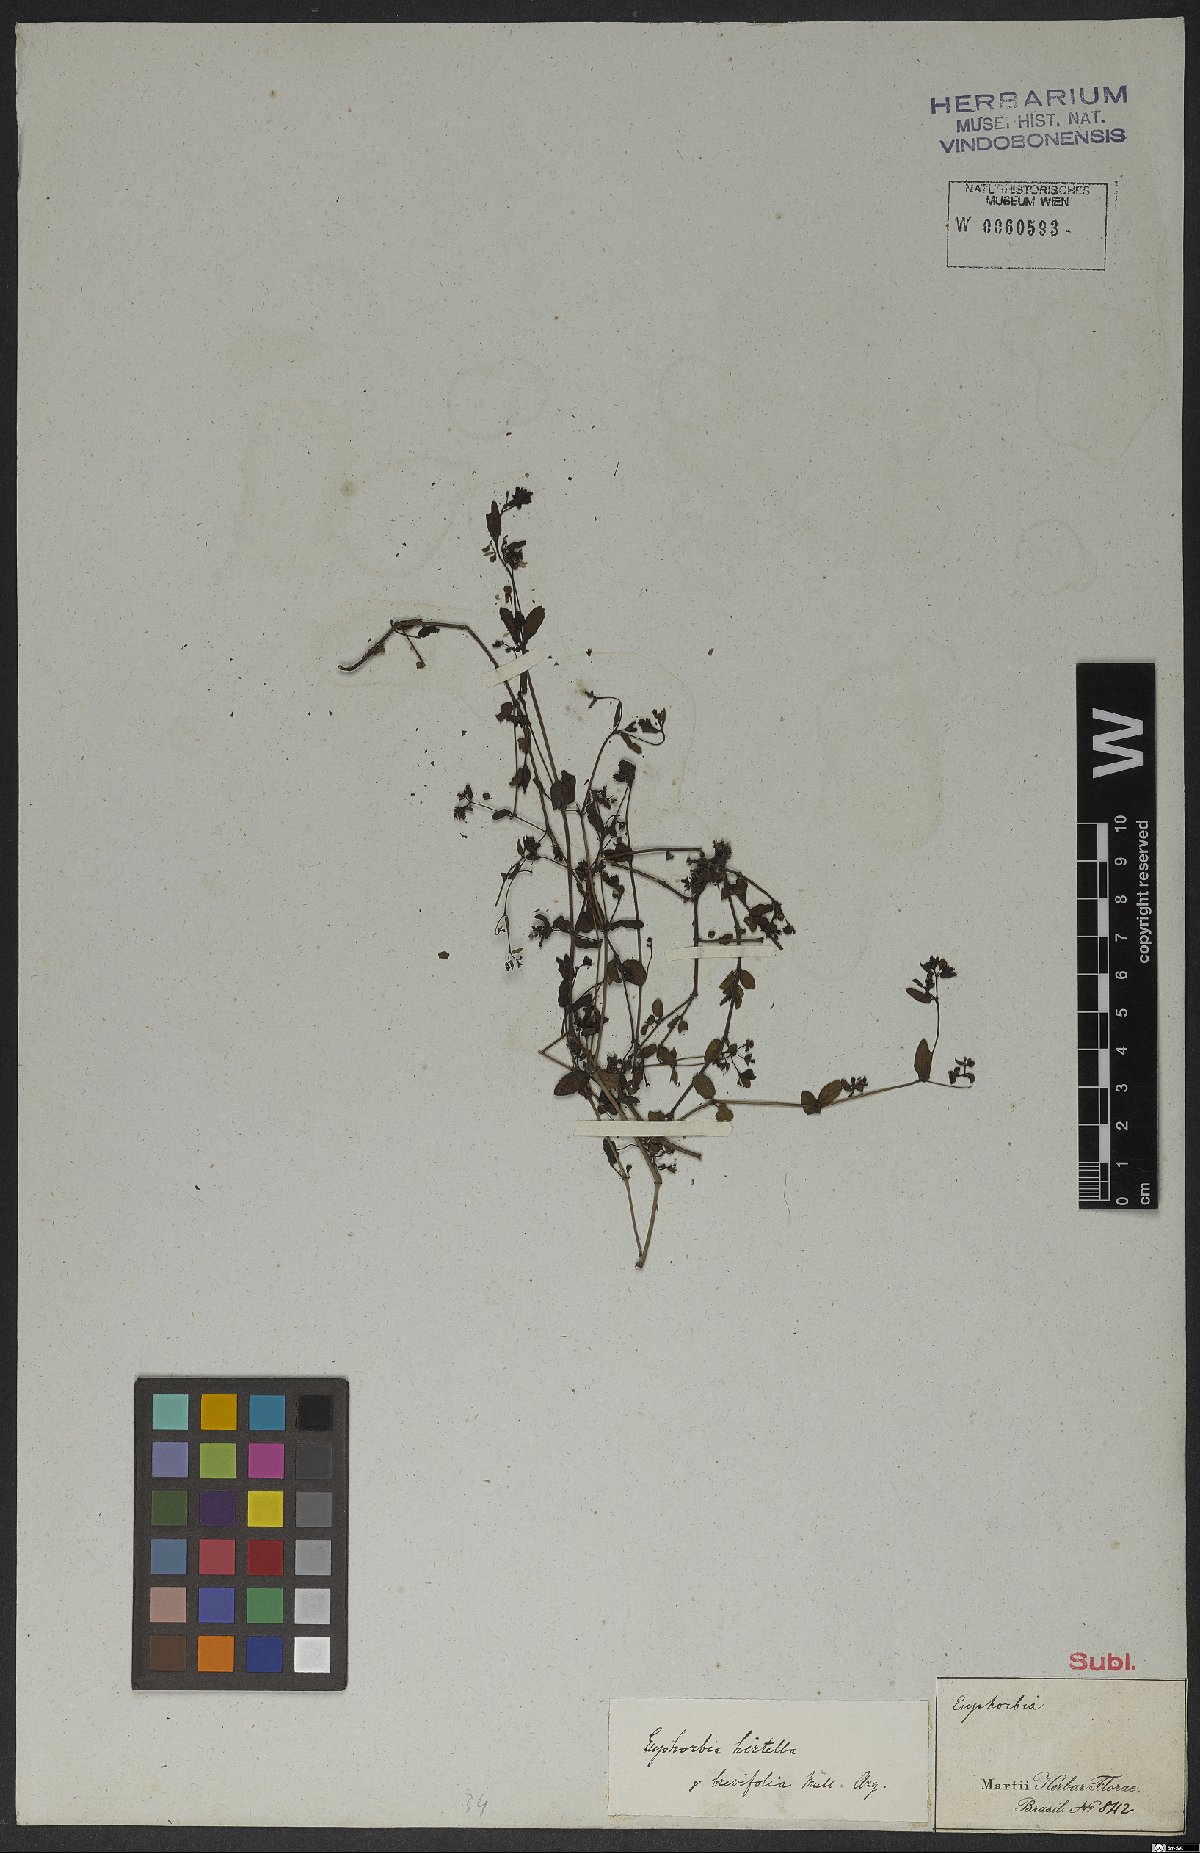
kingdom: Plantae
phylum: Tracheophyta
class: Magnoliopsida
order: Malpighiales
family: Euphorbiaceae
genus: Euphorbia
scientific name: Euphorbia
